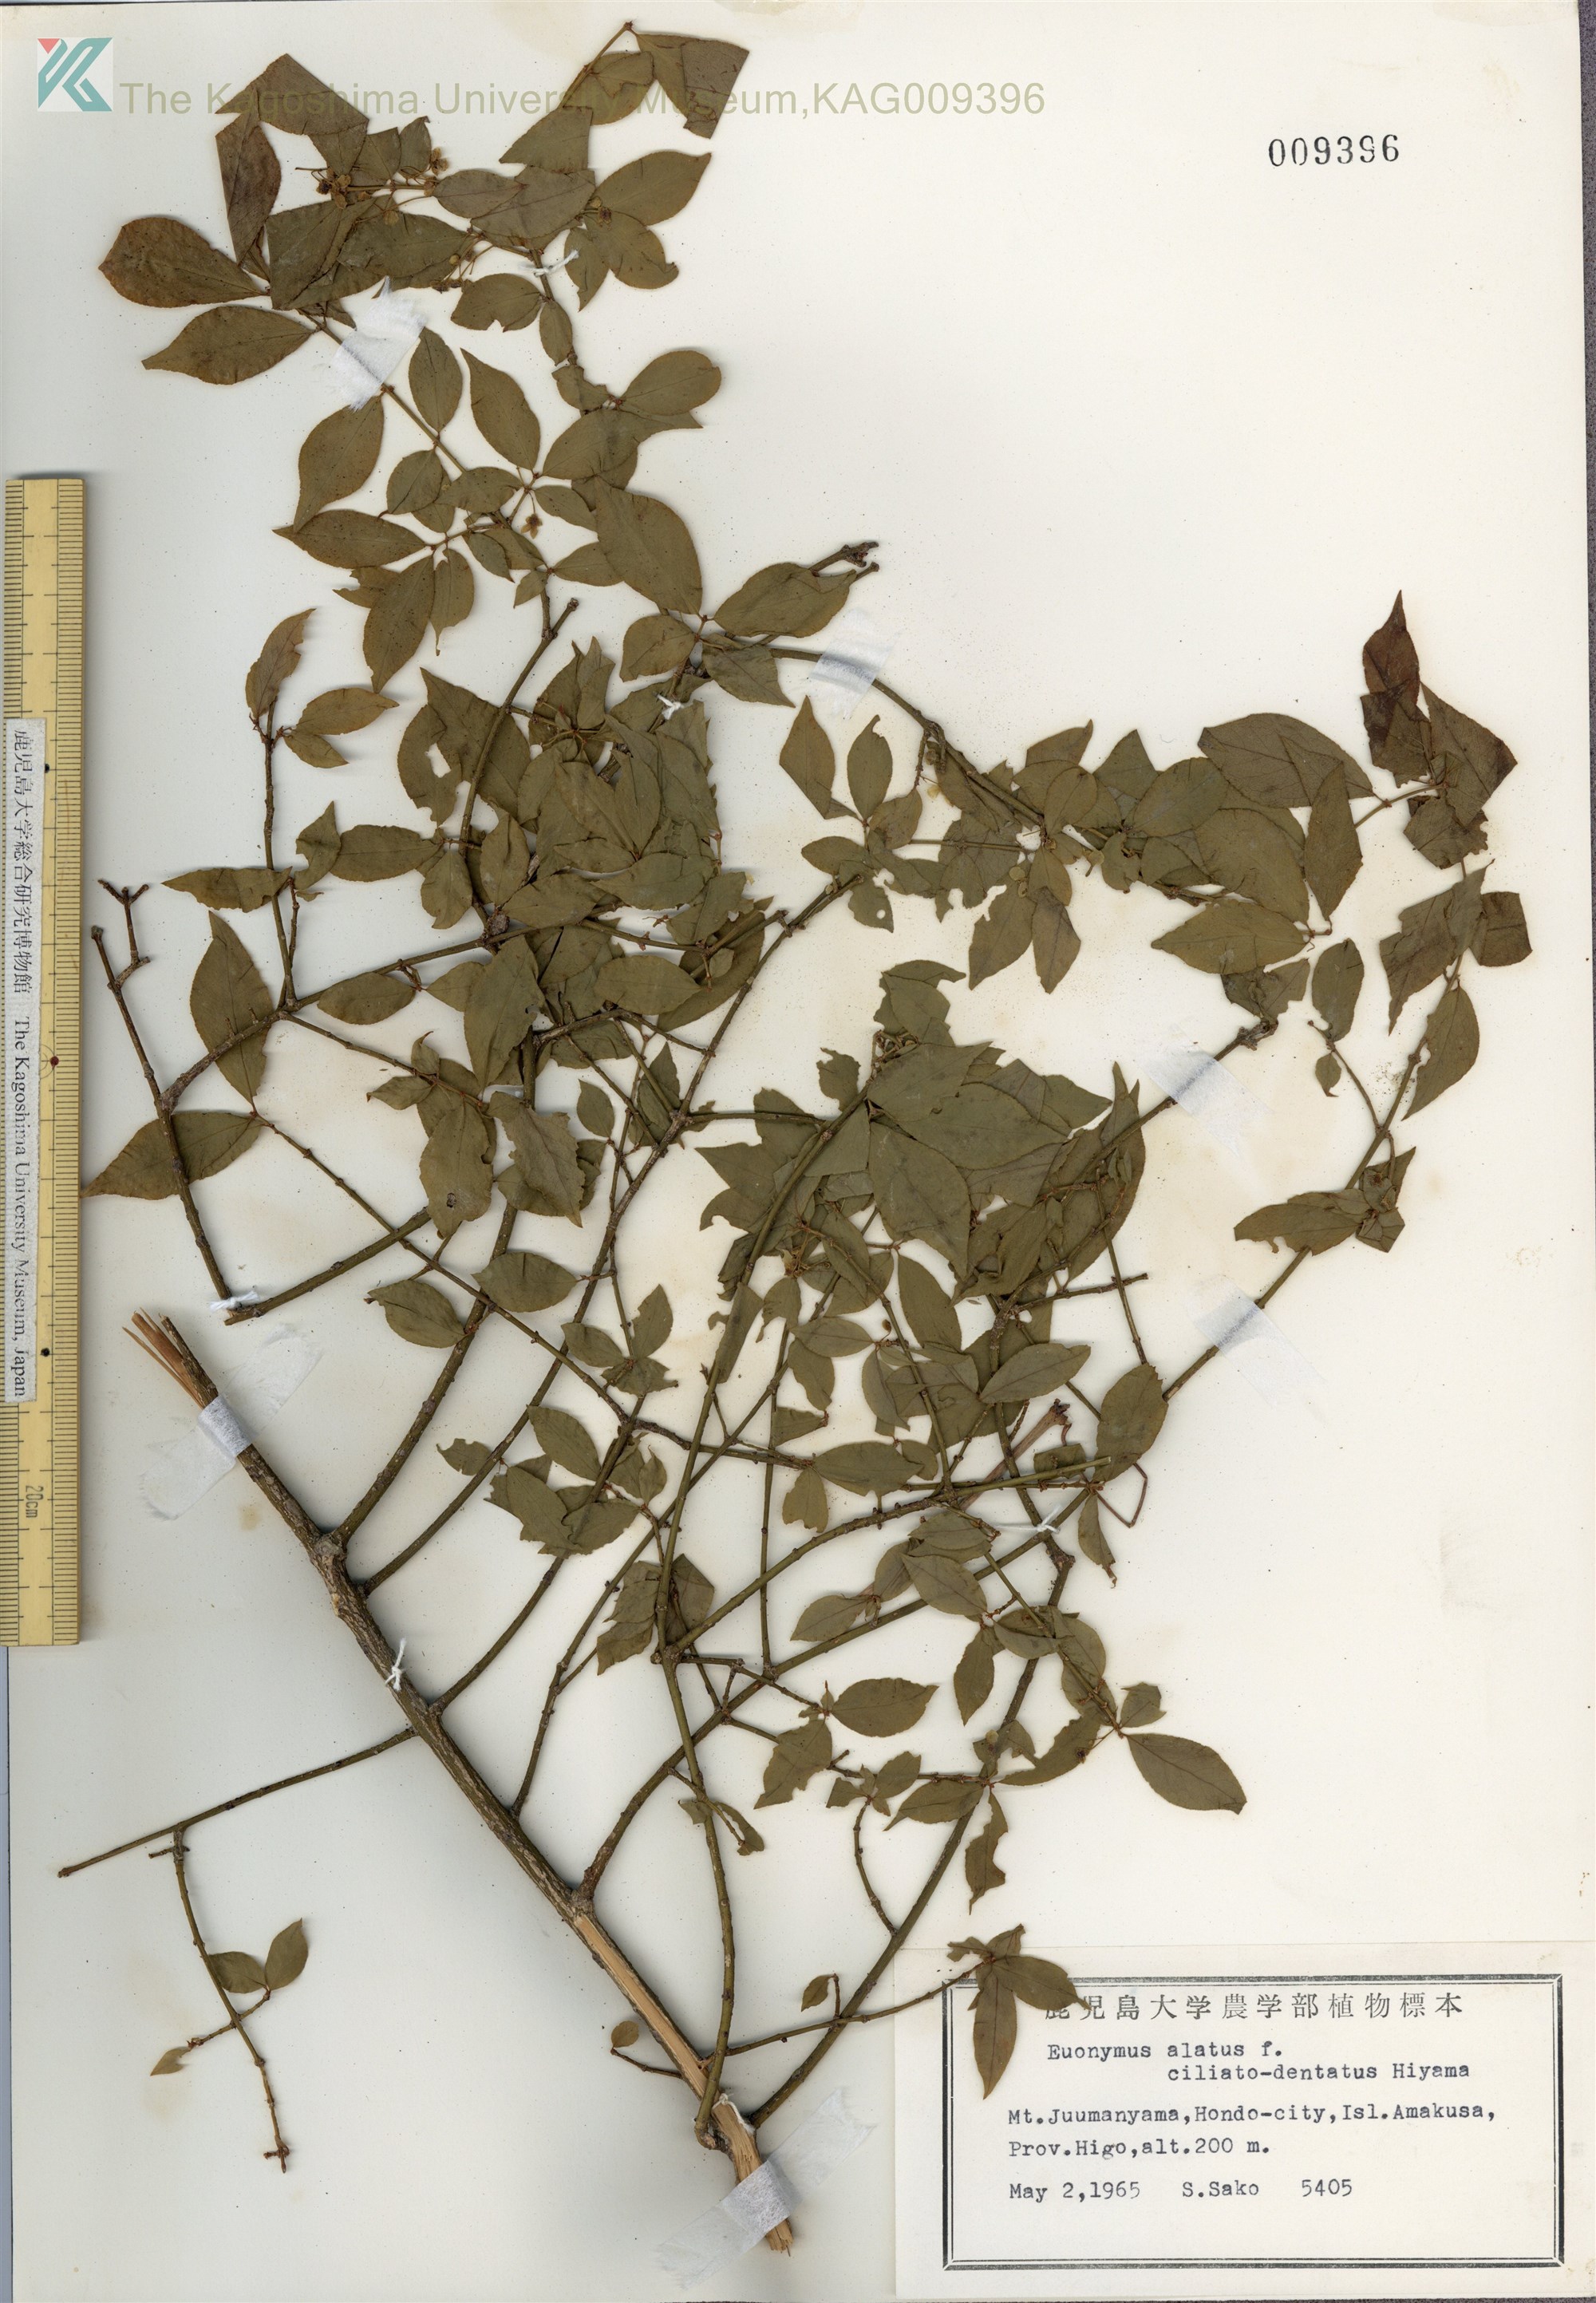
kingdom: Plantae
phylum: Tracheophyta
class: Magnoliopsida
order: Celastrales
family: Celastraceae
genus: Euonymus
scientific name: Euonymus alatus
